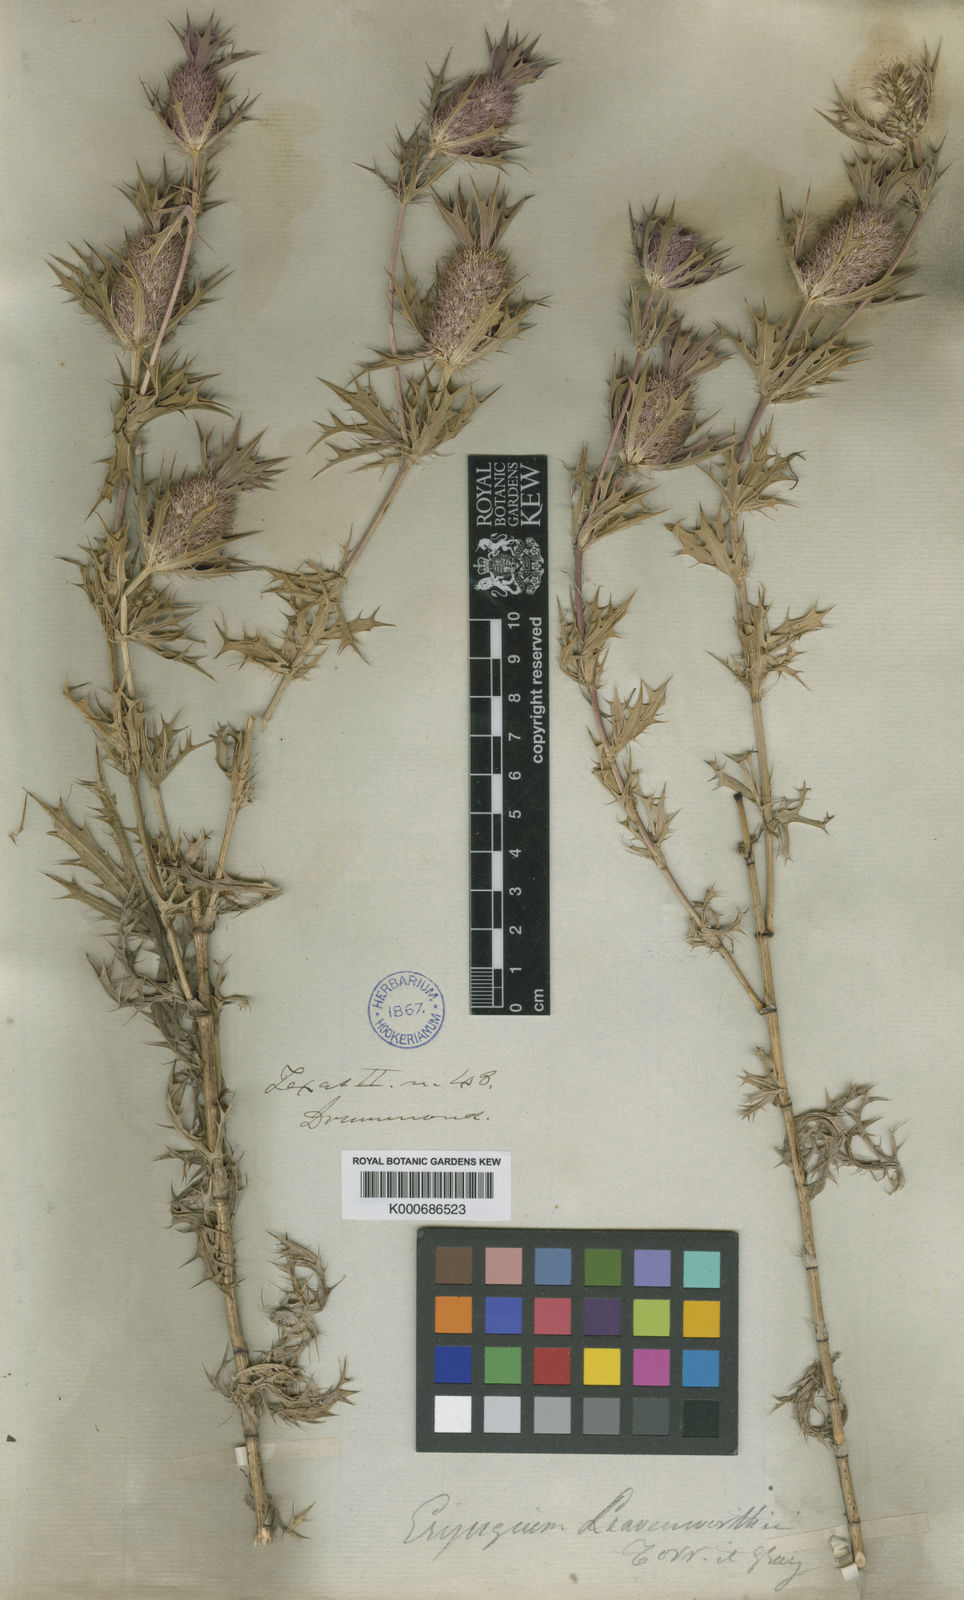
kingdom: Plantae
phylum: Tracheophyta
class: Magnoliopsida
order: Apiales
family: Apiaceae
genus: Eryngium
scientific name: Eryngium leavenworthii
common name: Leavenworth's eryngo
